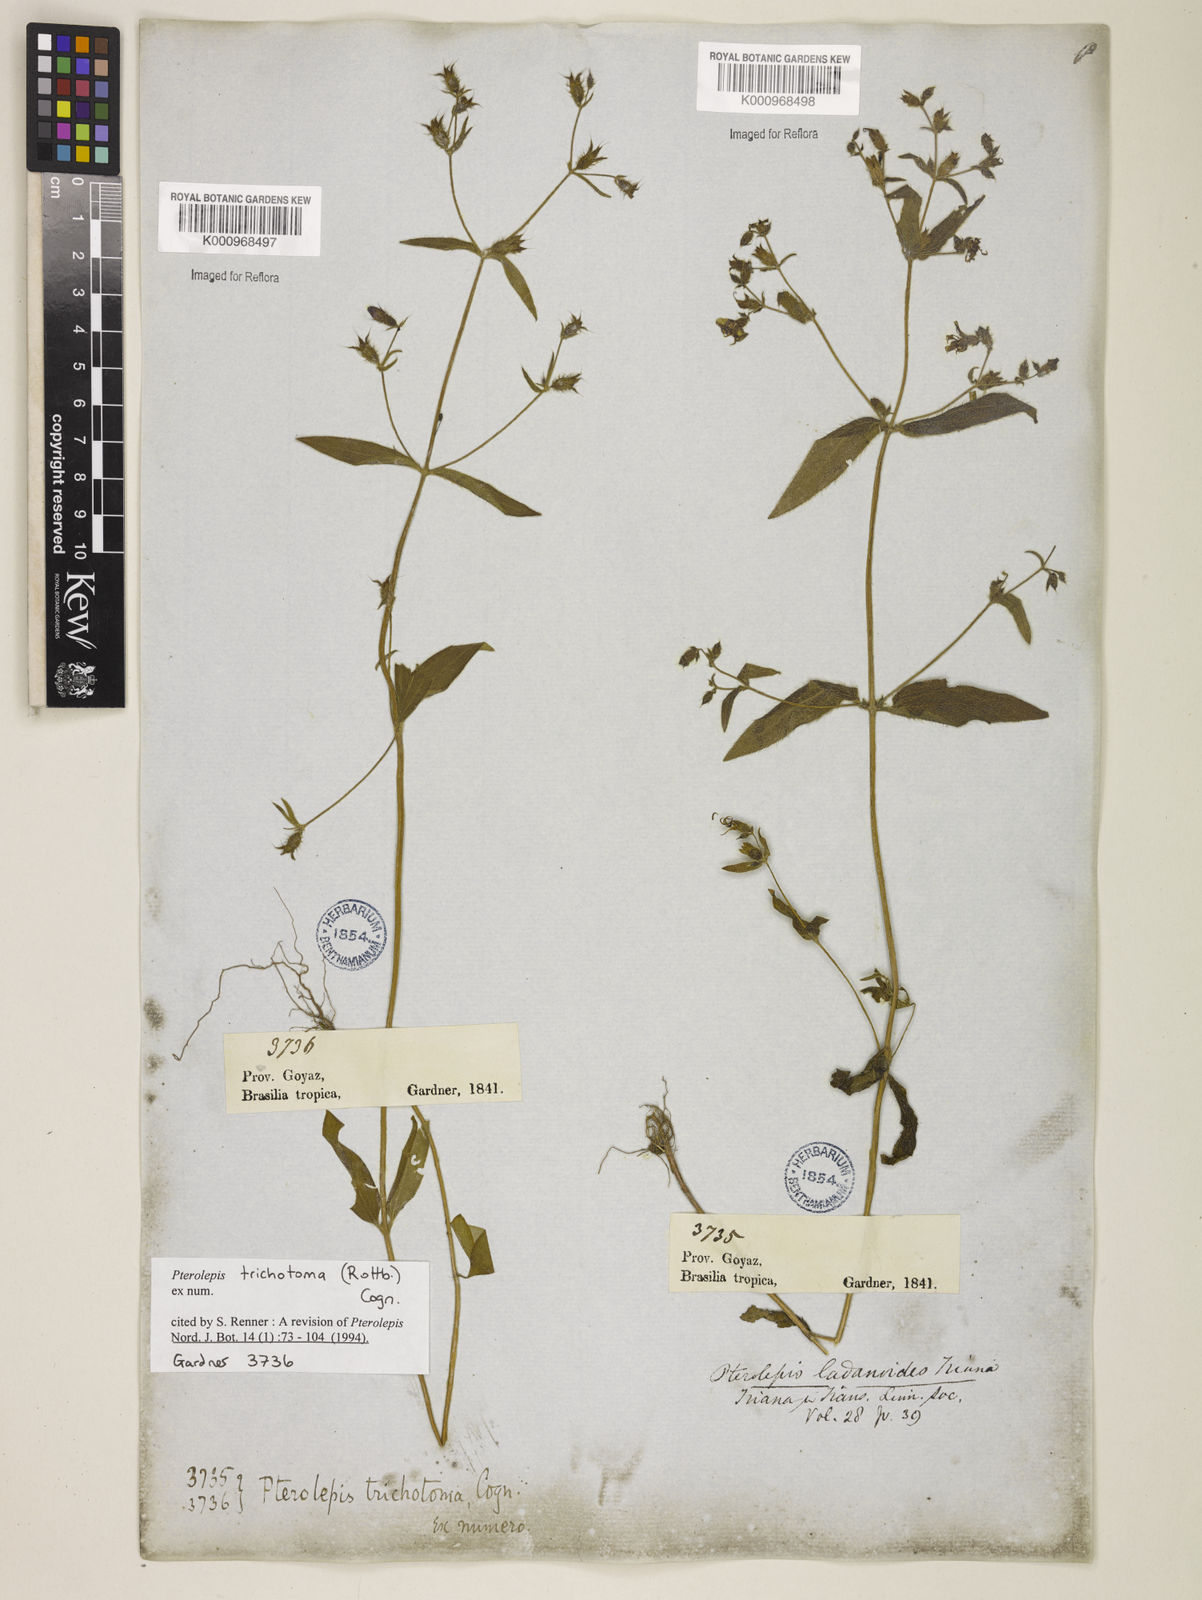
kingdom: Plantae
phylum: Tracheophyta
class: Magnoliopsida
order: Myrtales
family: Melastomataceae
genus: Pterolepis
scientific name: Pterolepis trichotoma
